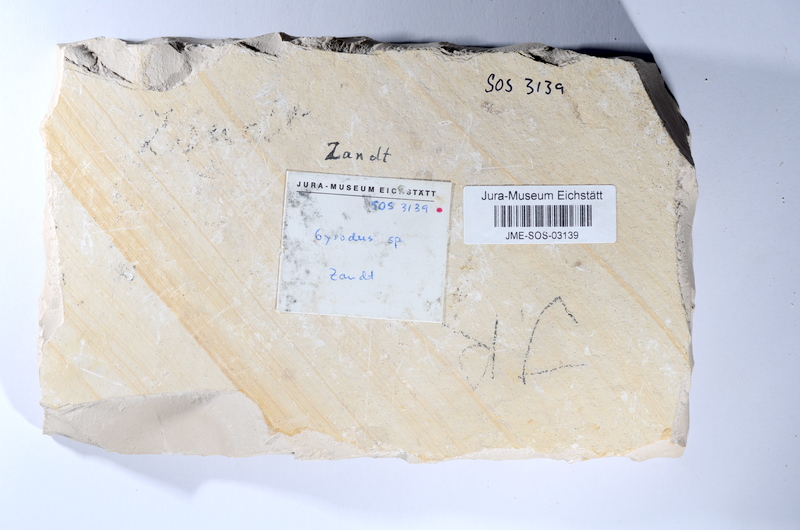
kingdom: Animalia
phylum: Chordata
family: Gyrodontidae
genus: Gyrodus
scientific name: Gyrodus hexagonus
